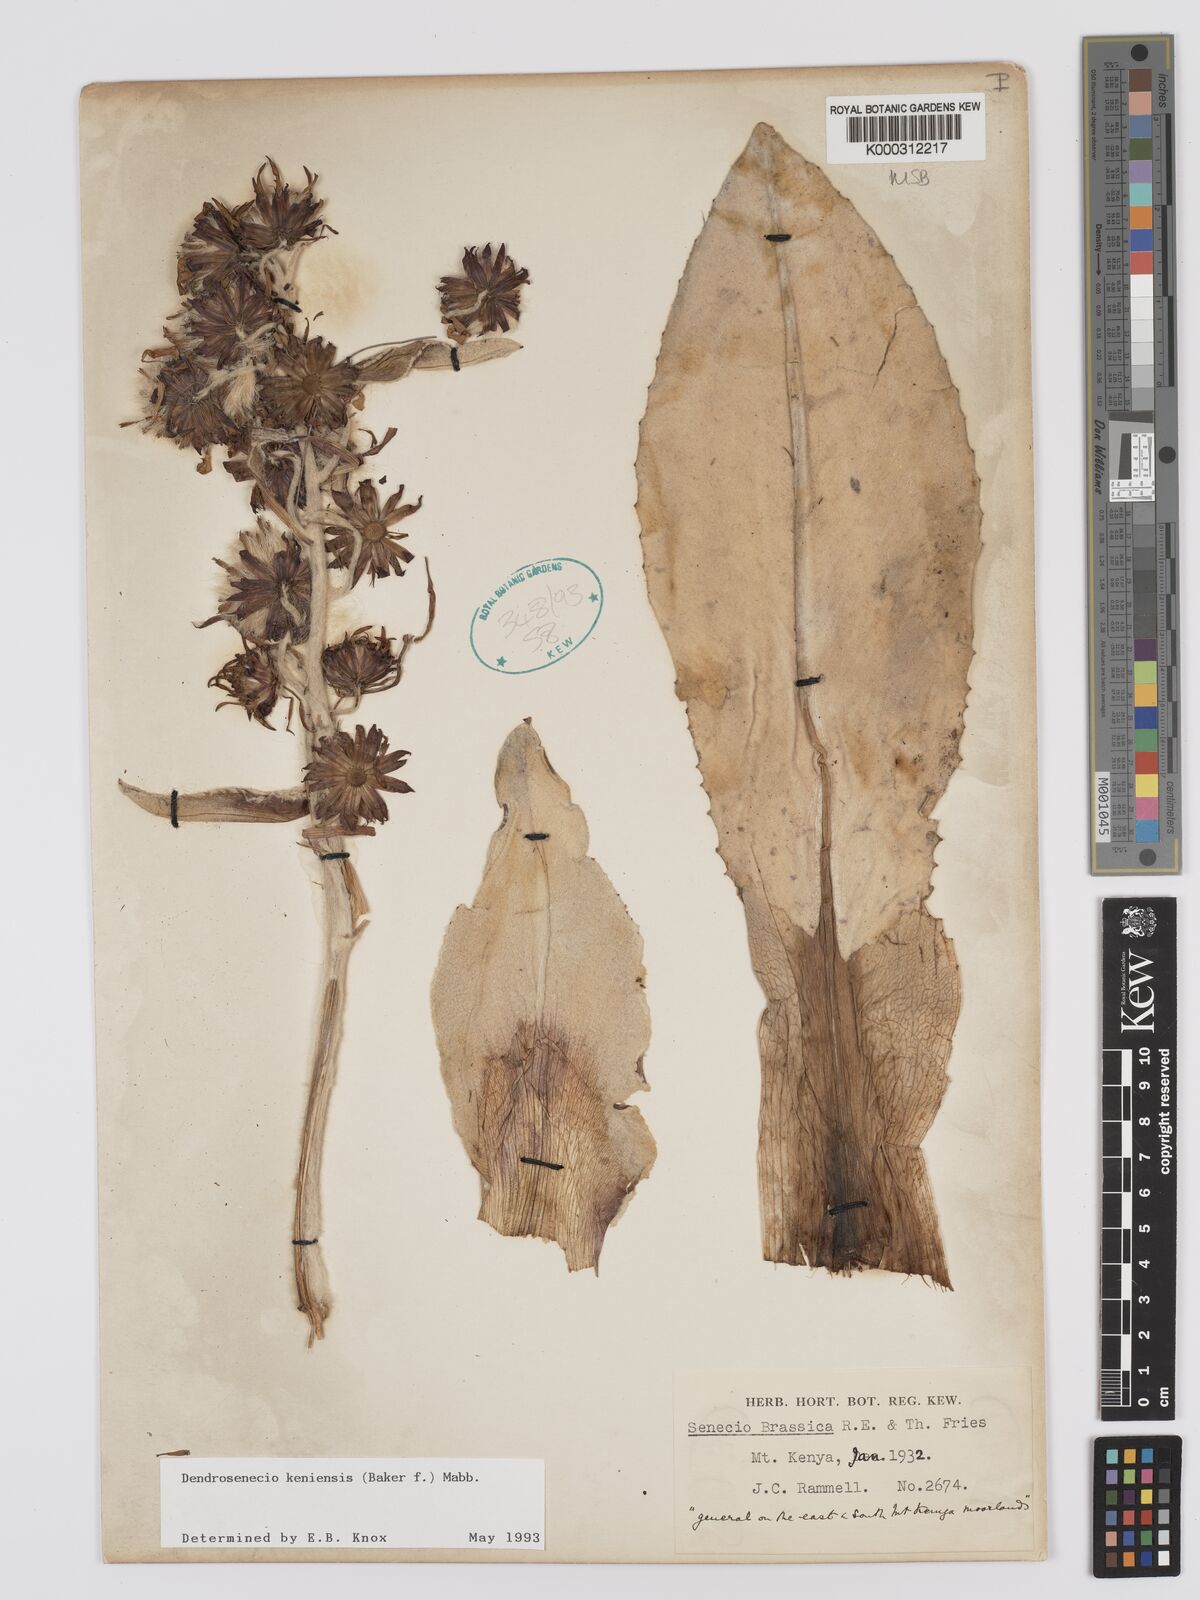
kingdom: Plantae
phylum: Tracheophyta
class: Magnoliopsida
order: Asterales
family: Asteraceae
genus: Dendrosenecio
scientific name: Dendrosenecio keniensis
